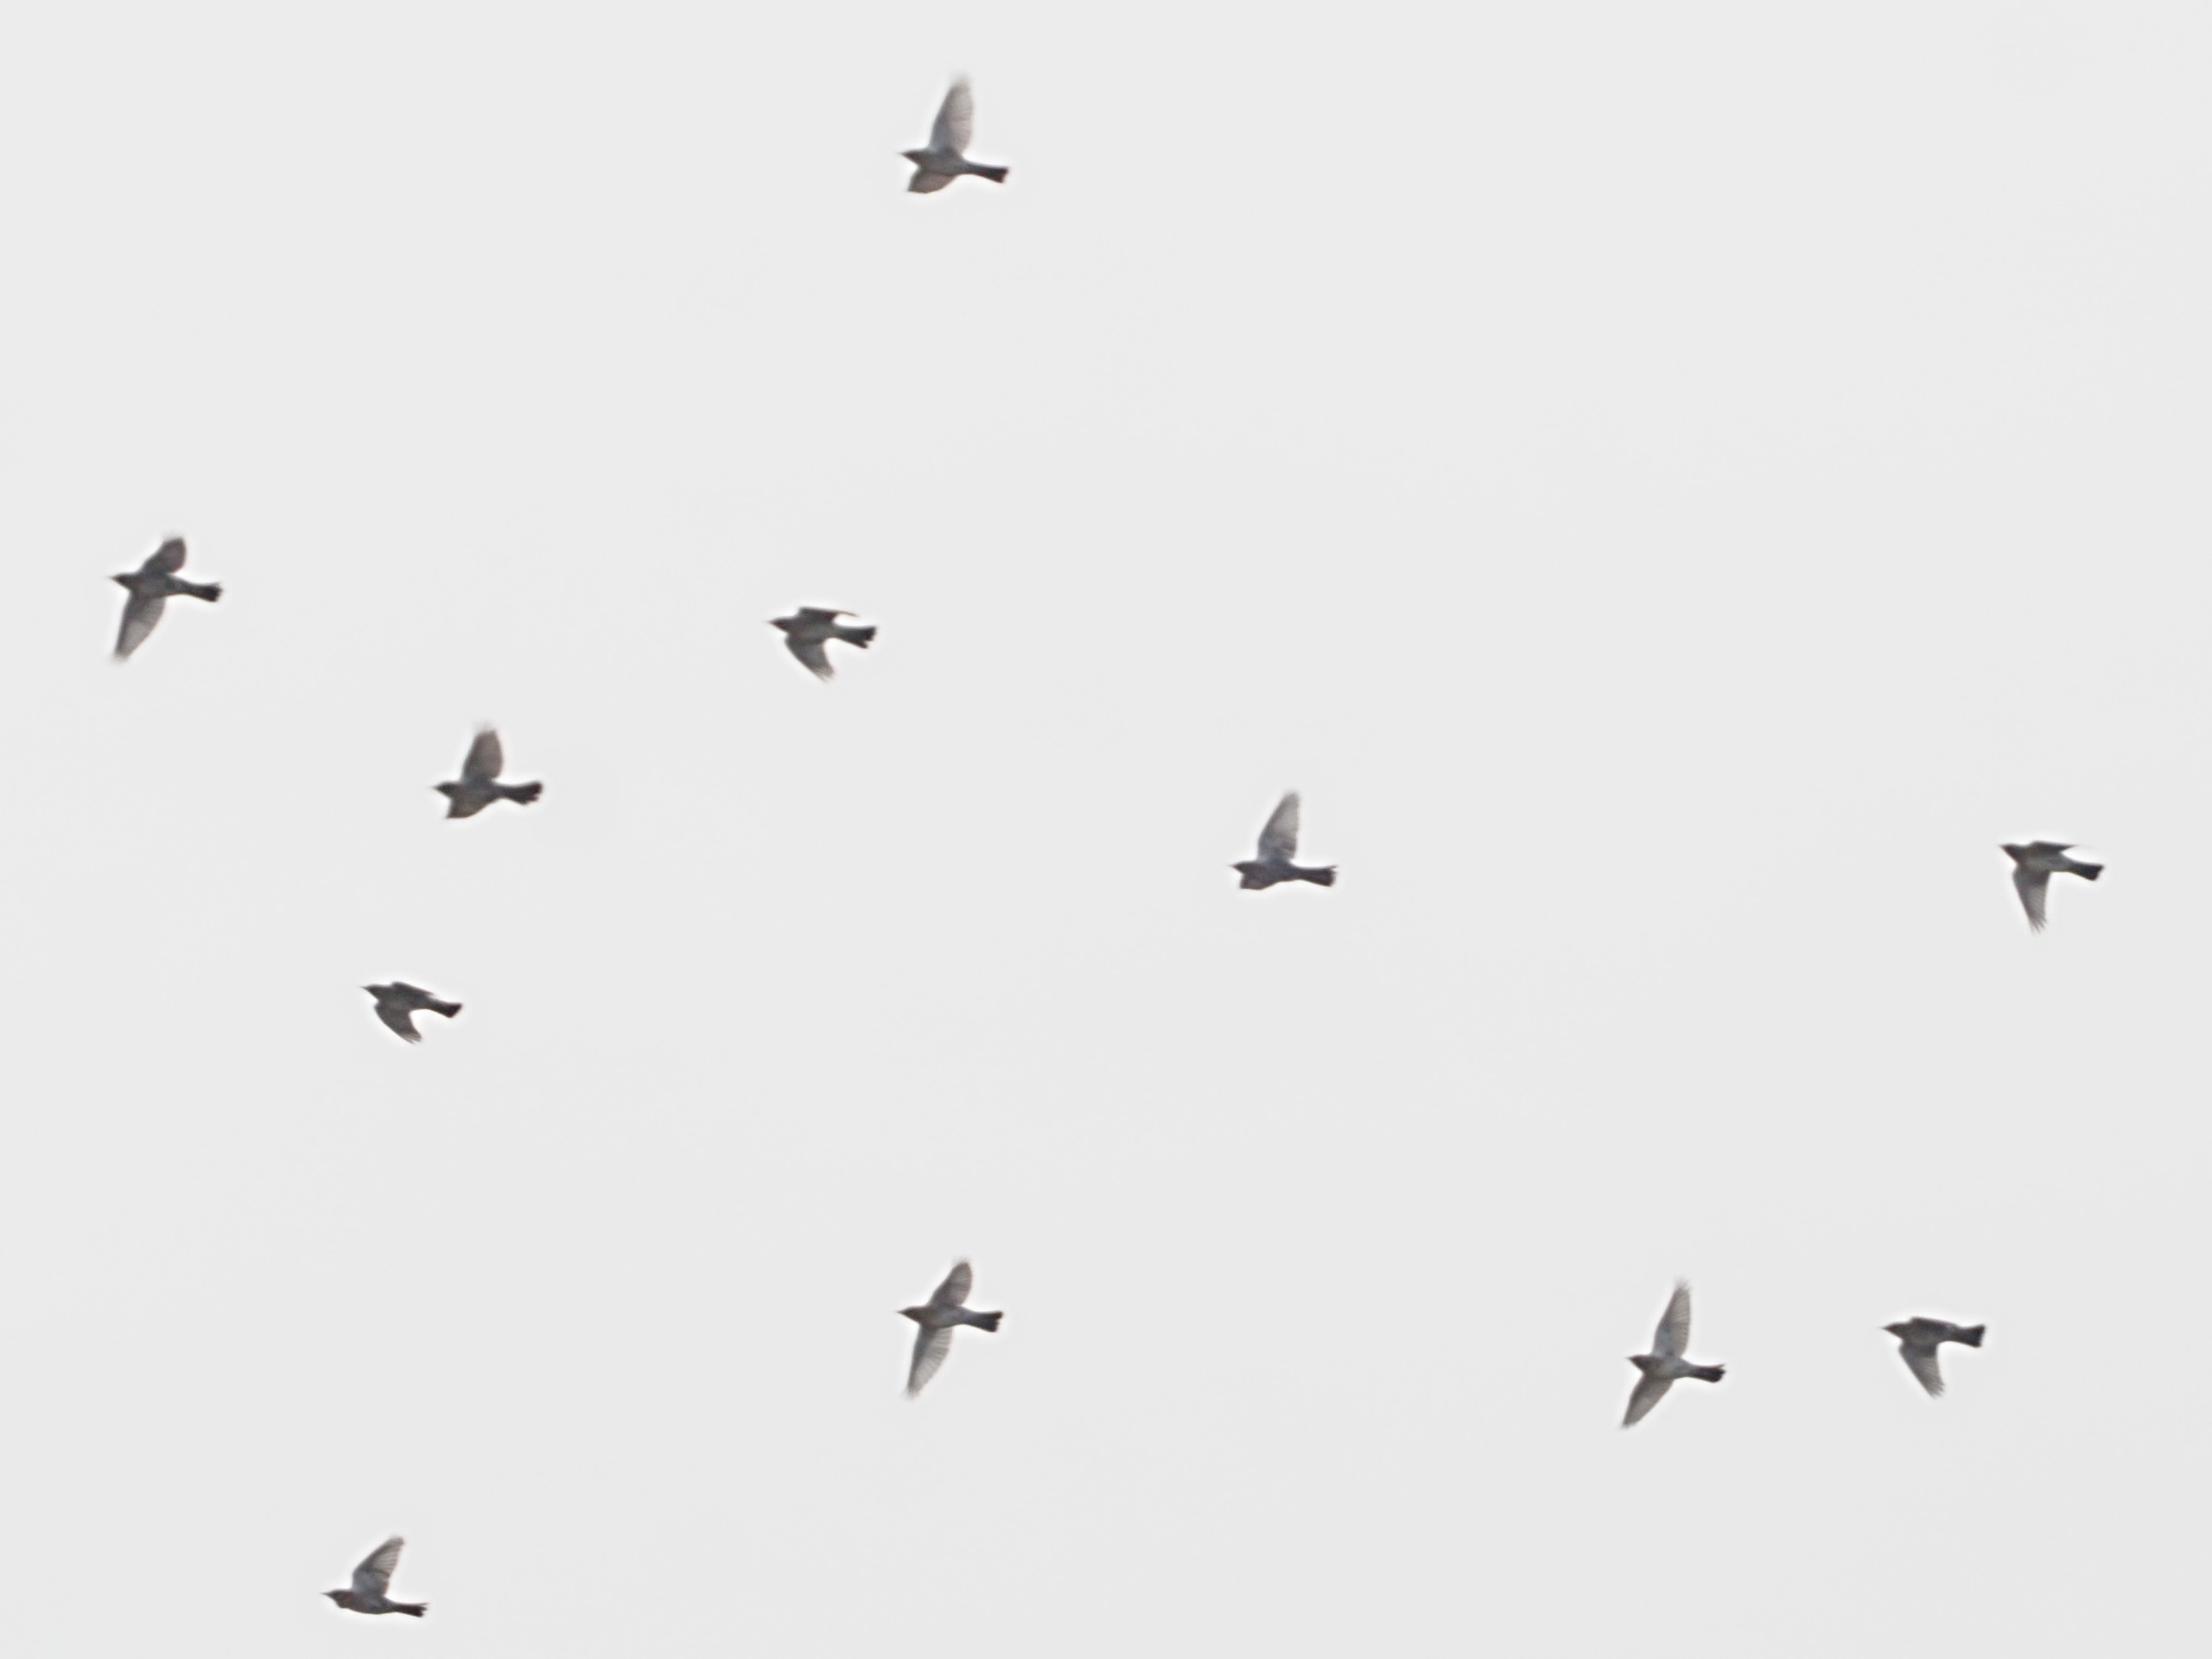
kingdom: Animalia
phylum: Chordata
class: Aves
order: Passeriformes
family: Turdidae
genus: Turdus
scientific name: Turdus pilaris
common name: Sjagger
